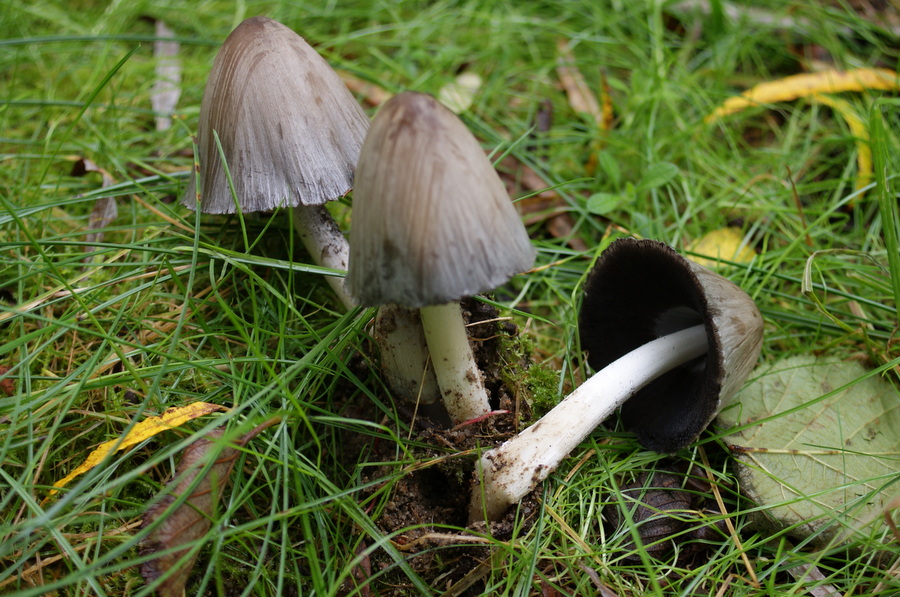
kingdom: Fungi
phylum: Basidiomycota
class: Agaricomycetes
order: Agaricales
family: Psathyrellaceae
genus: Coprinopsis
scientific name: Coprinopsis atramentaria
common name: almindelig blækhat
